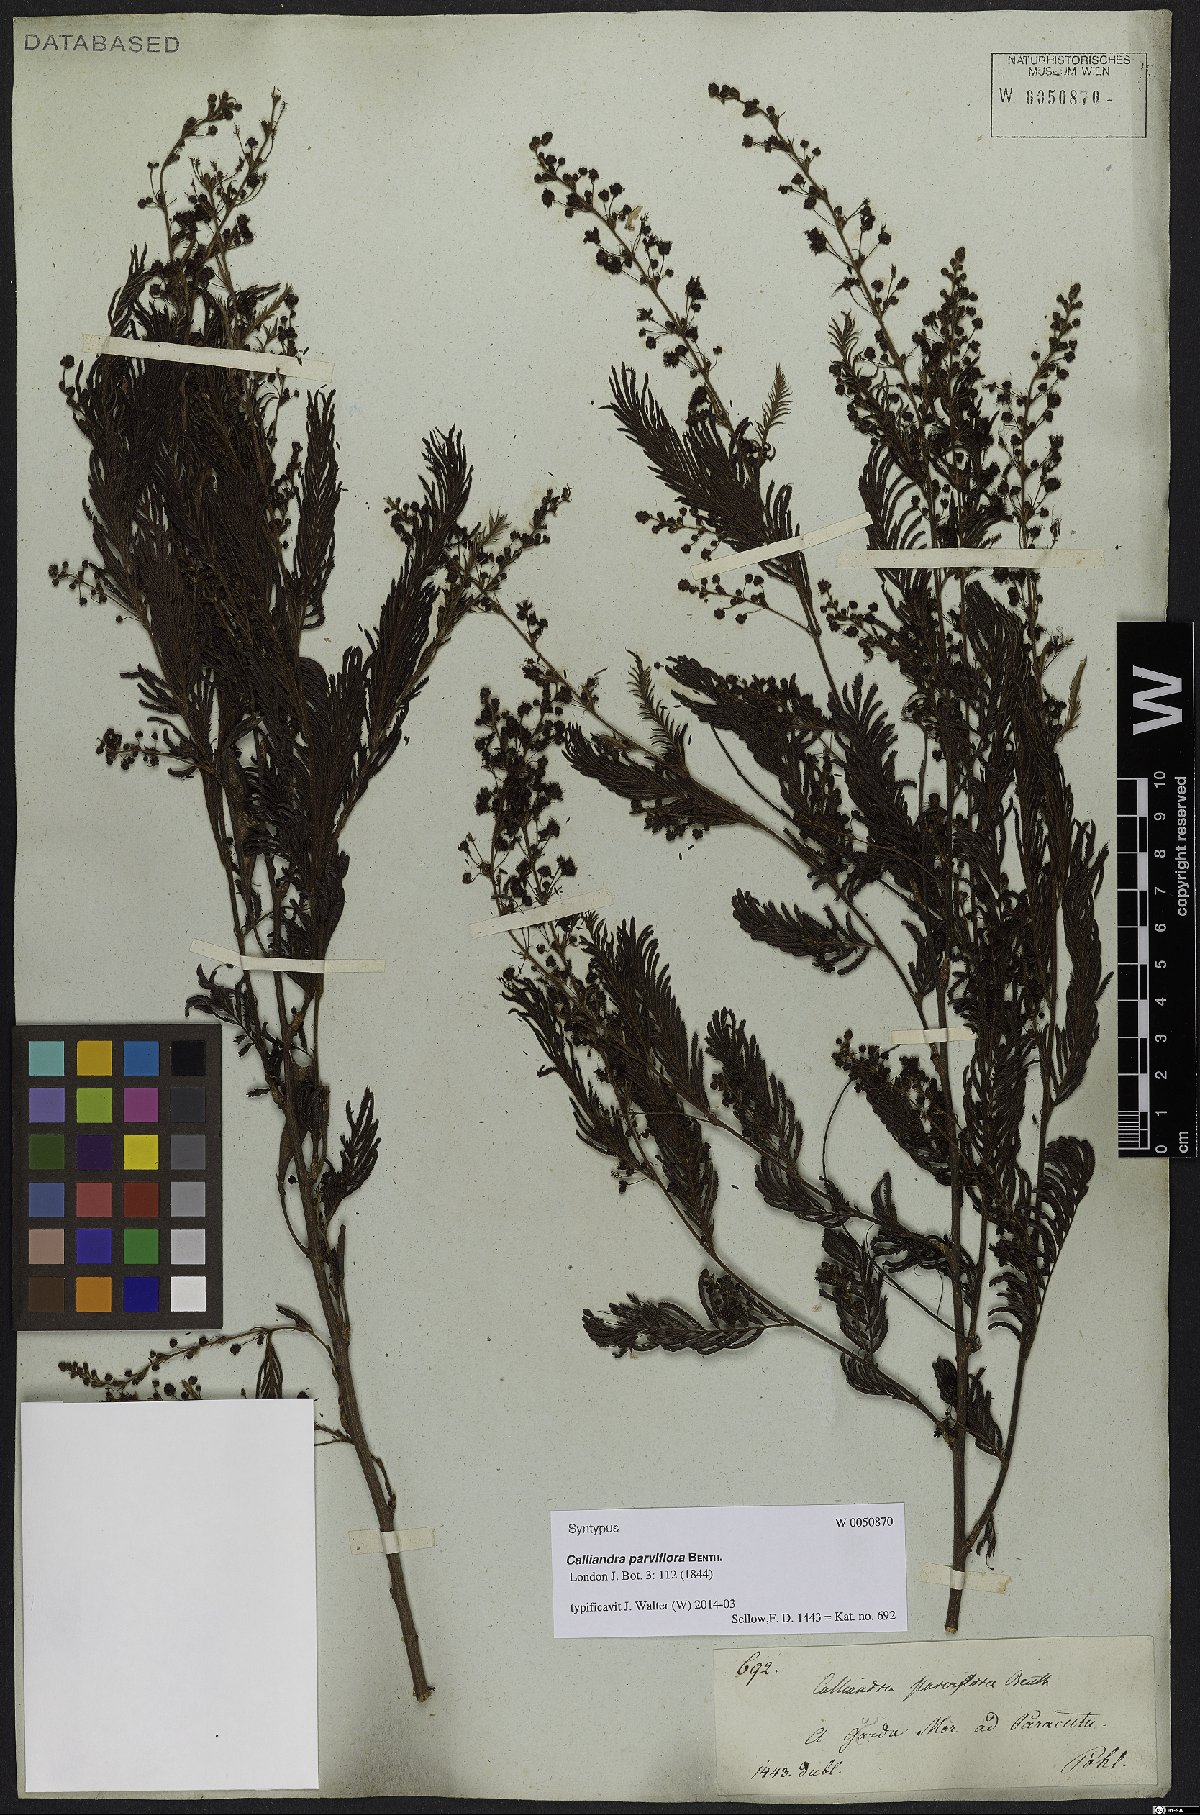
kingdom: Plantae
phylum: Tracheophyta
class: Magnoliopsida
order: Fabales
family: Fabaceae
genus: Calliandra
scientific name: Calliandra parviflora
